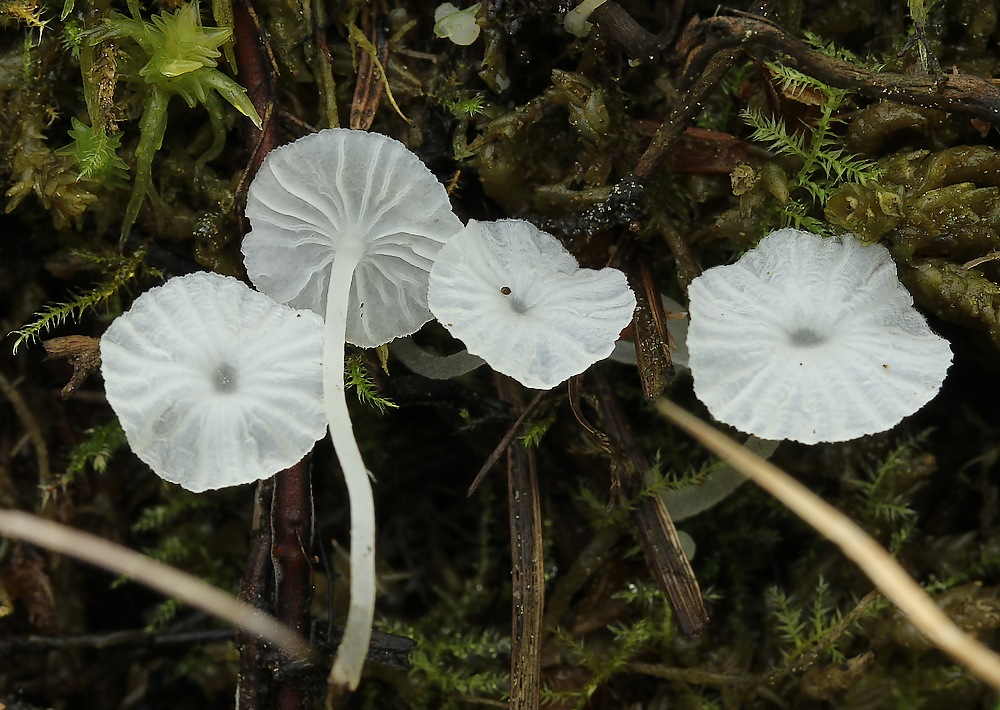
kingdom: Fungi
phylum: Basidiomycota
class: Agaricomycetes
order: Agaricales
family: Tricholomataceae
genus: Delicatula
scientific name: Delicatula integrella
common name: slørhuesvamp
